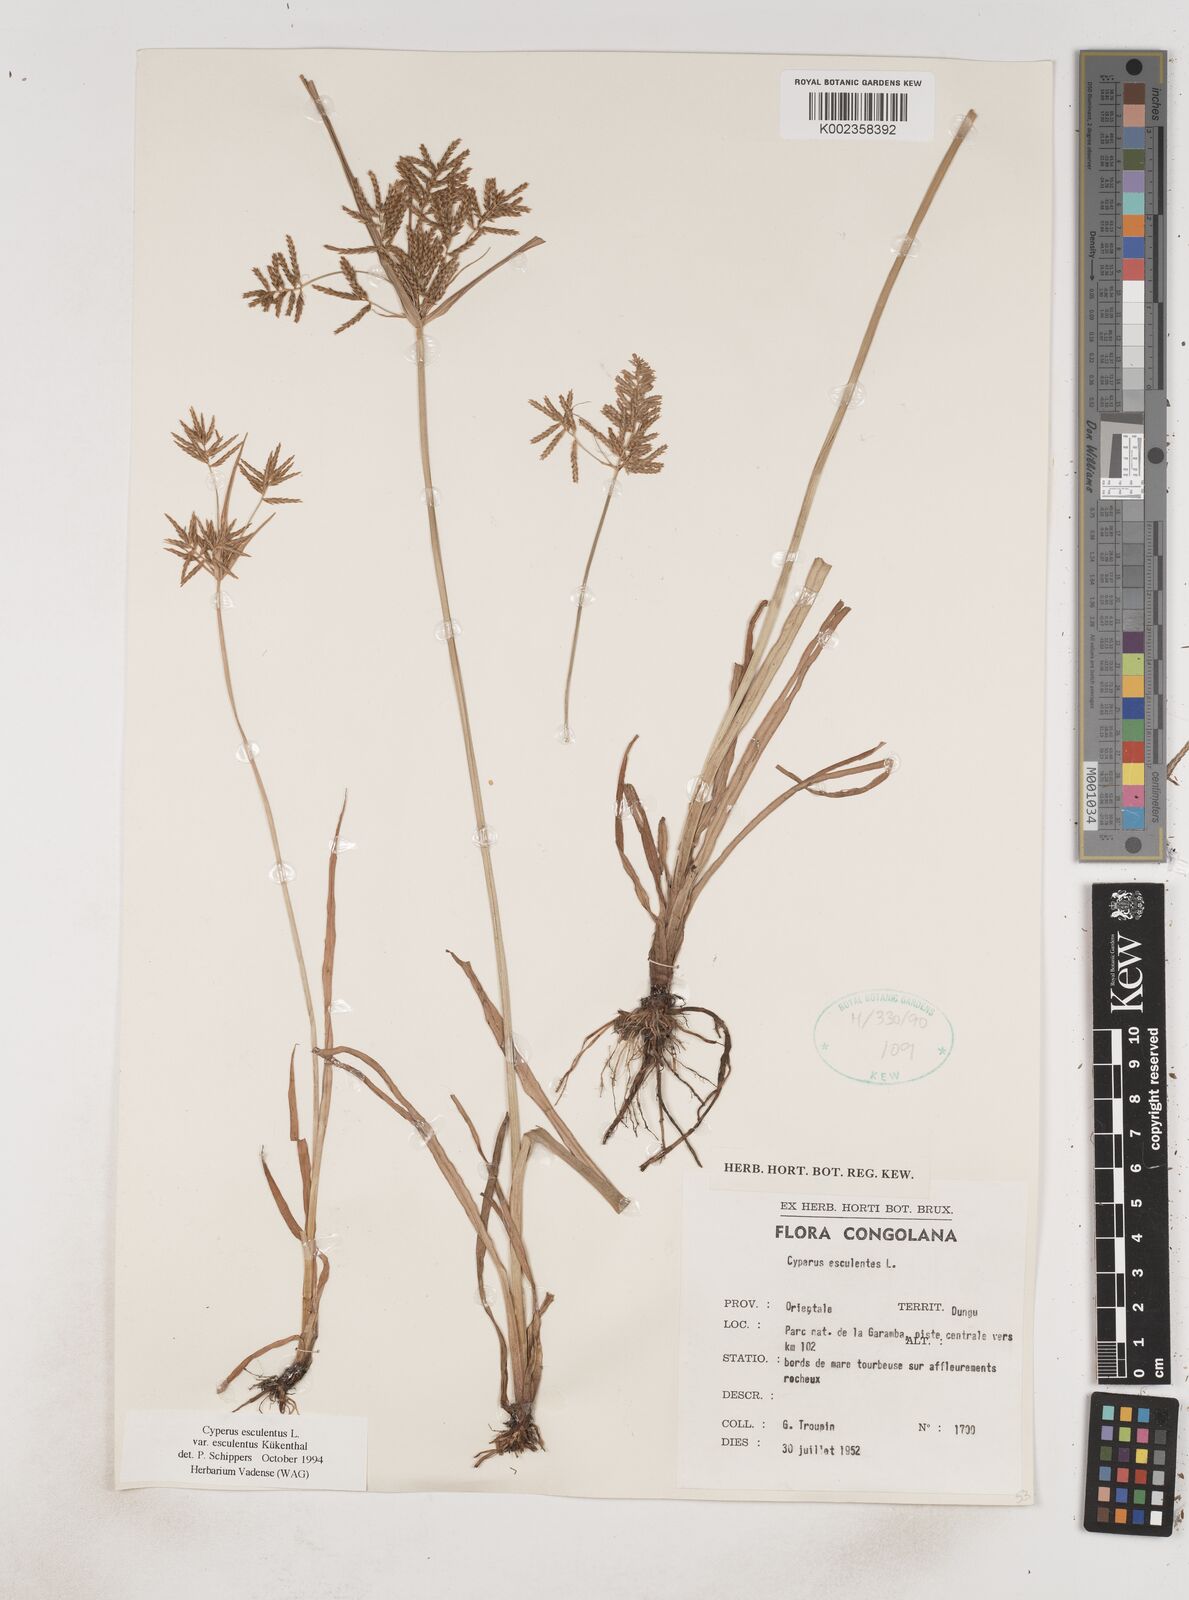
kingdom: Plantae
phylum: Tracheophyta
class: Liliopsida
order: Poales
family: Cyperaceae
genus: Cyperus
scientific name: Cyperus esculentus
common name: Yellow nutsedge
